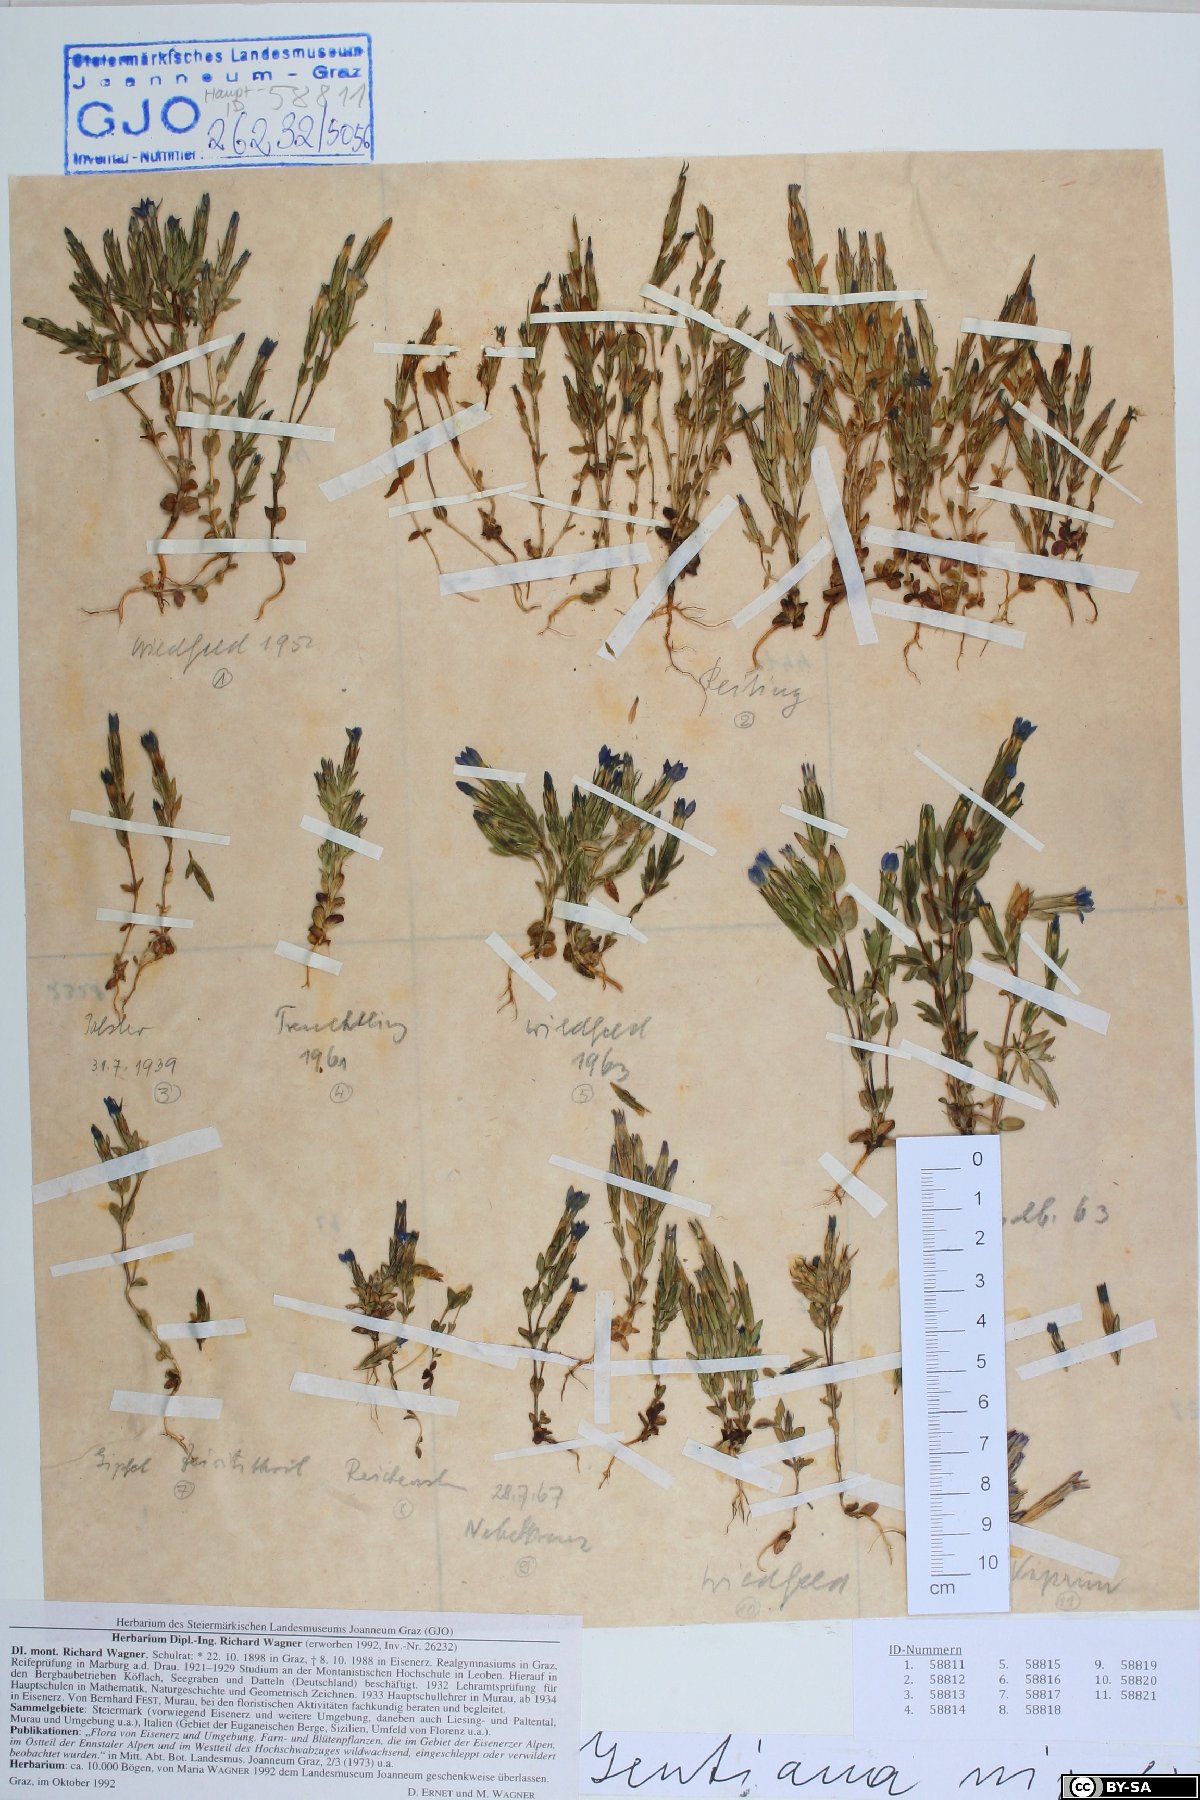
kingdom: Plantae
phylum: Tracheophyta
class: Magnoliopsida
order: Gentianales
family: Gentianaceae
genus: Gentiana
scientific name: Gentiana nivalis
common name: Alpine gentian
